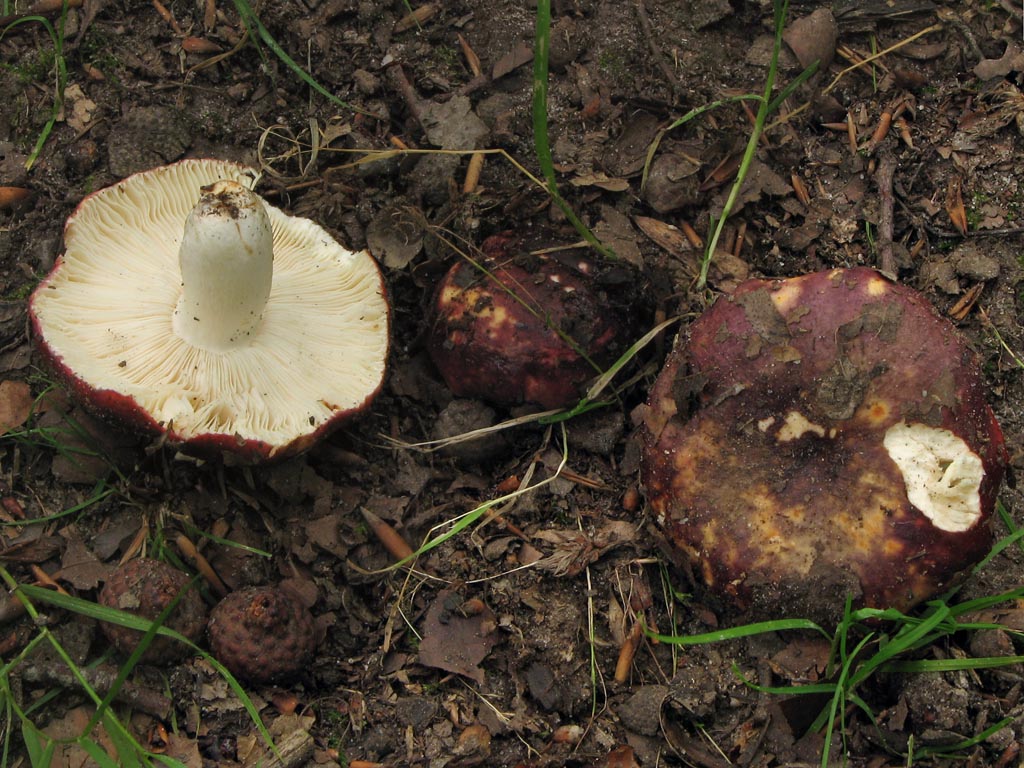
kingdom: Fungi
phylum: Basidiomycota
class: Agaricomycetes
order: Russulales
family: Russulaceae
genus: Russula
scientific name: Russula viscida
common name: knippe-skørhat
